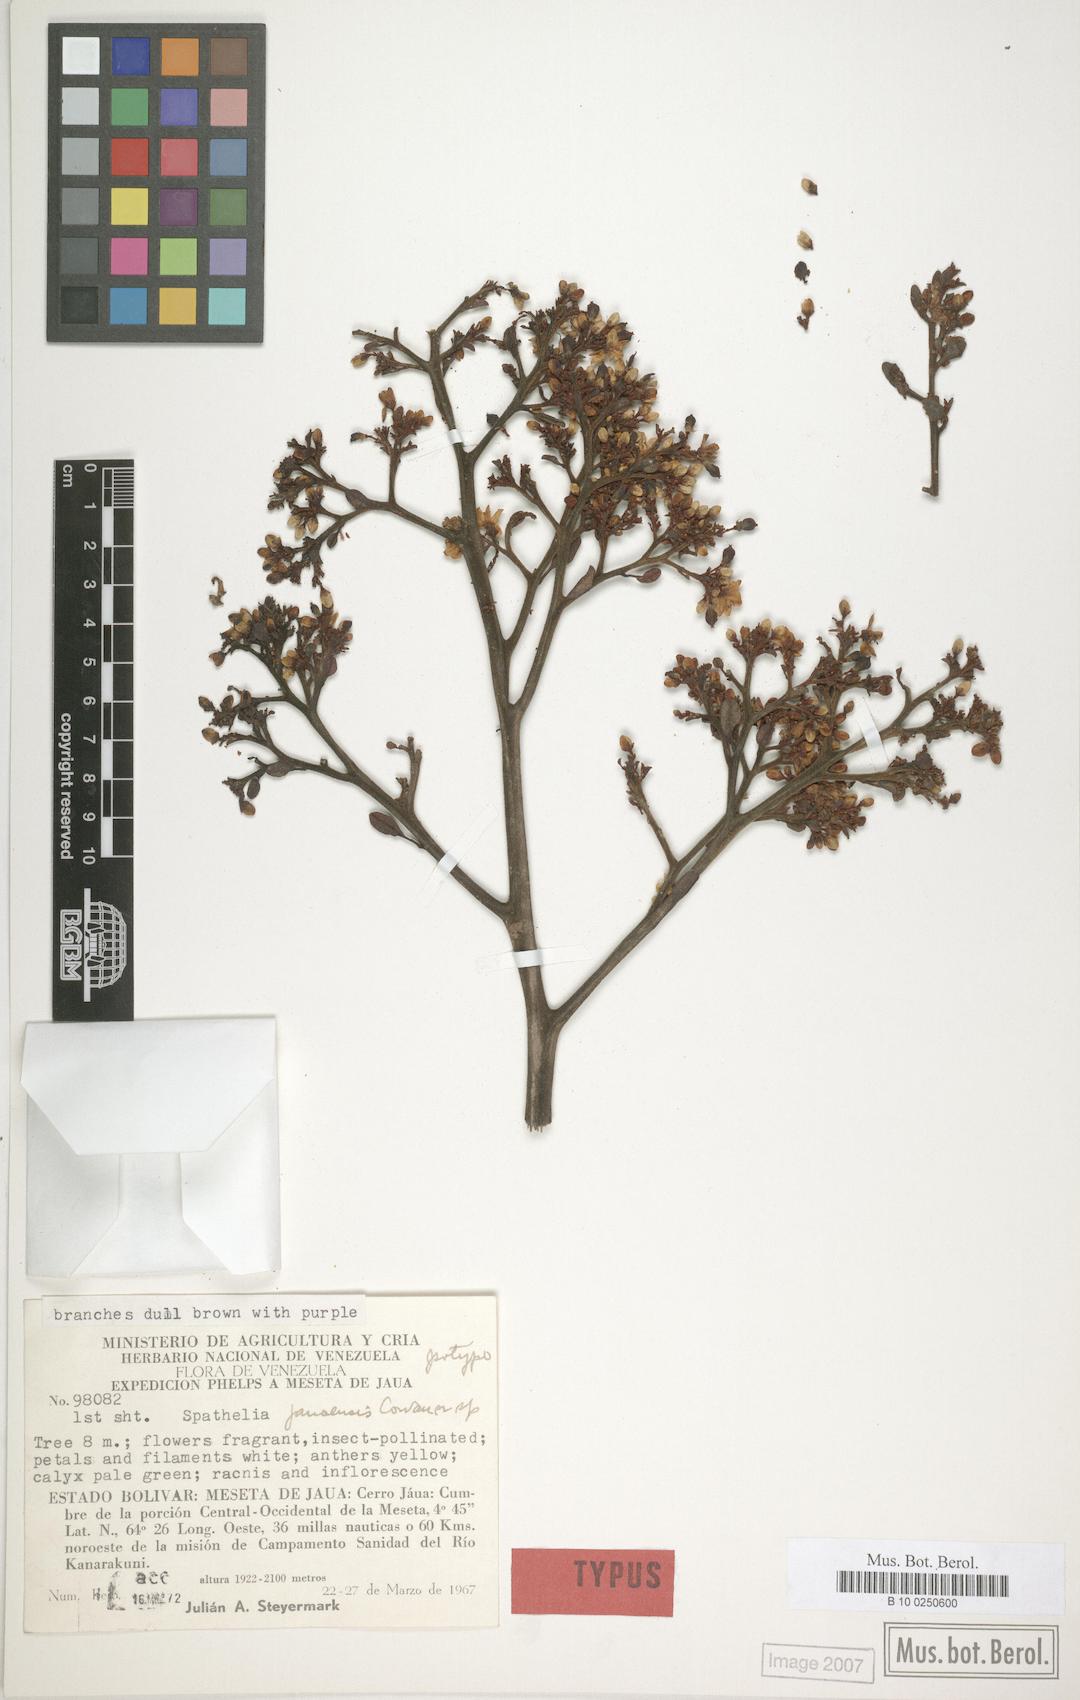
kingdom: Plantae
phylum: Tracheophyta
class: Magnoliopsida
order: Sapindales
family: Rutaceae
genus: Sohnreyia
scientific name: Sohnreyia ulei
